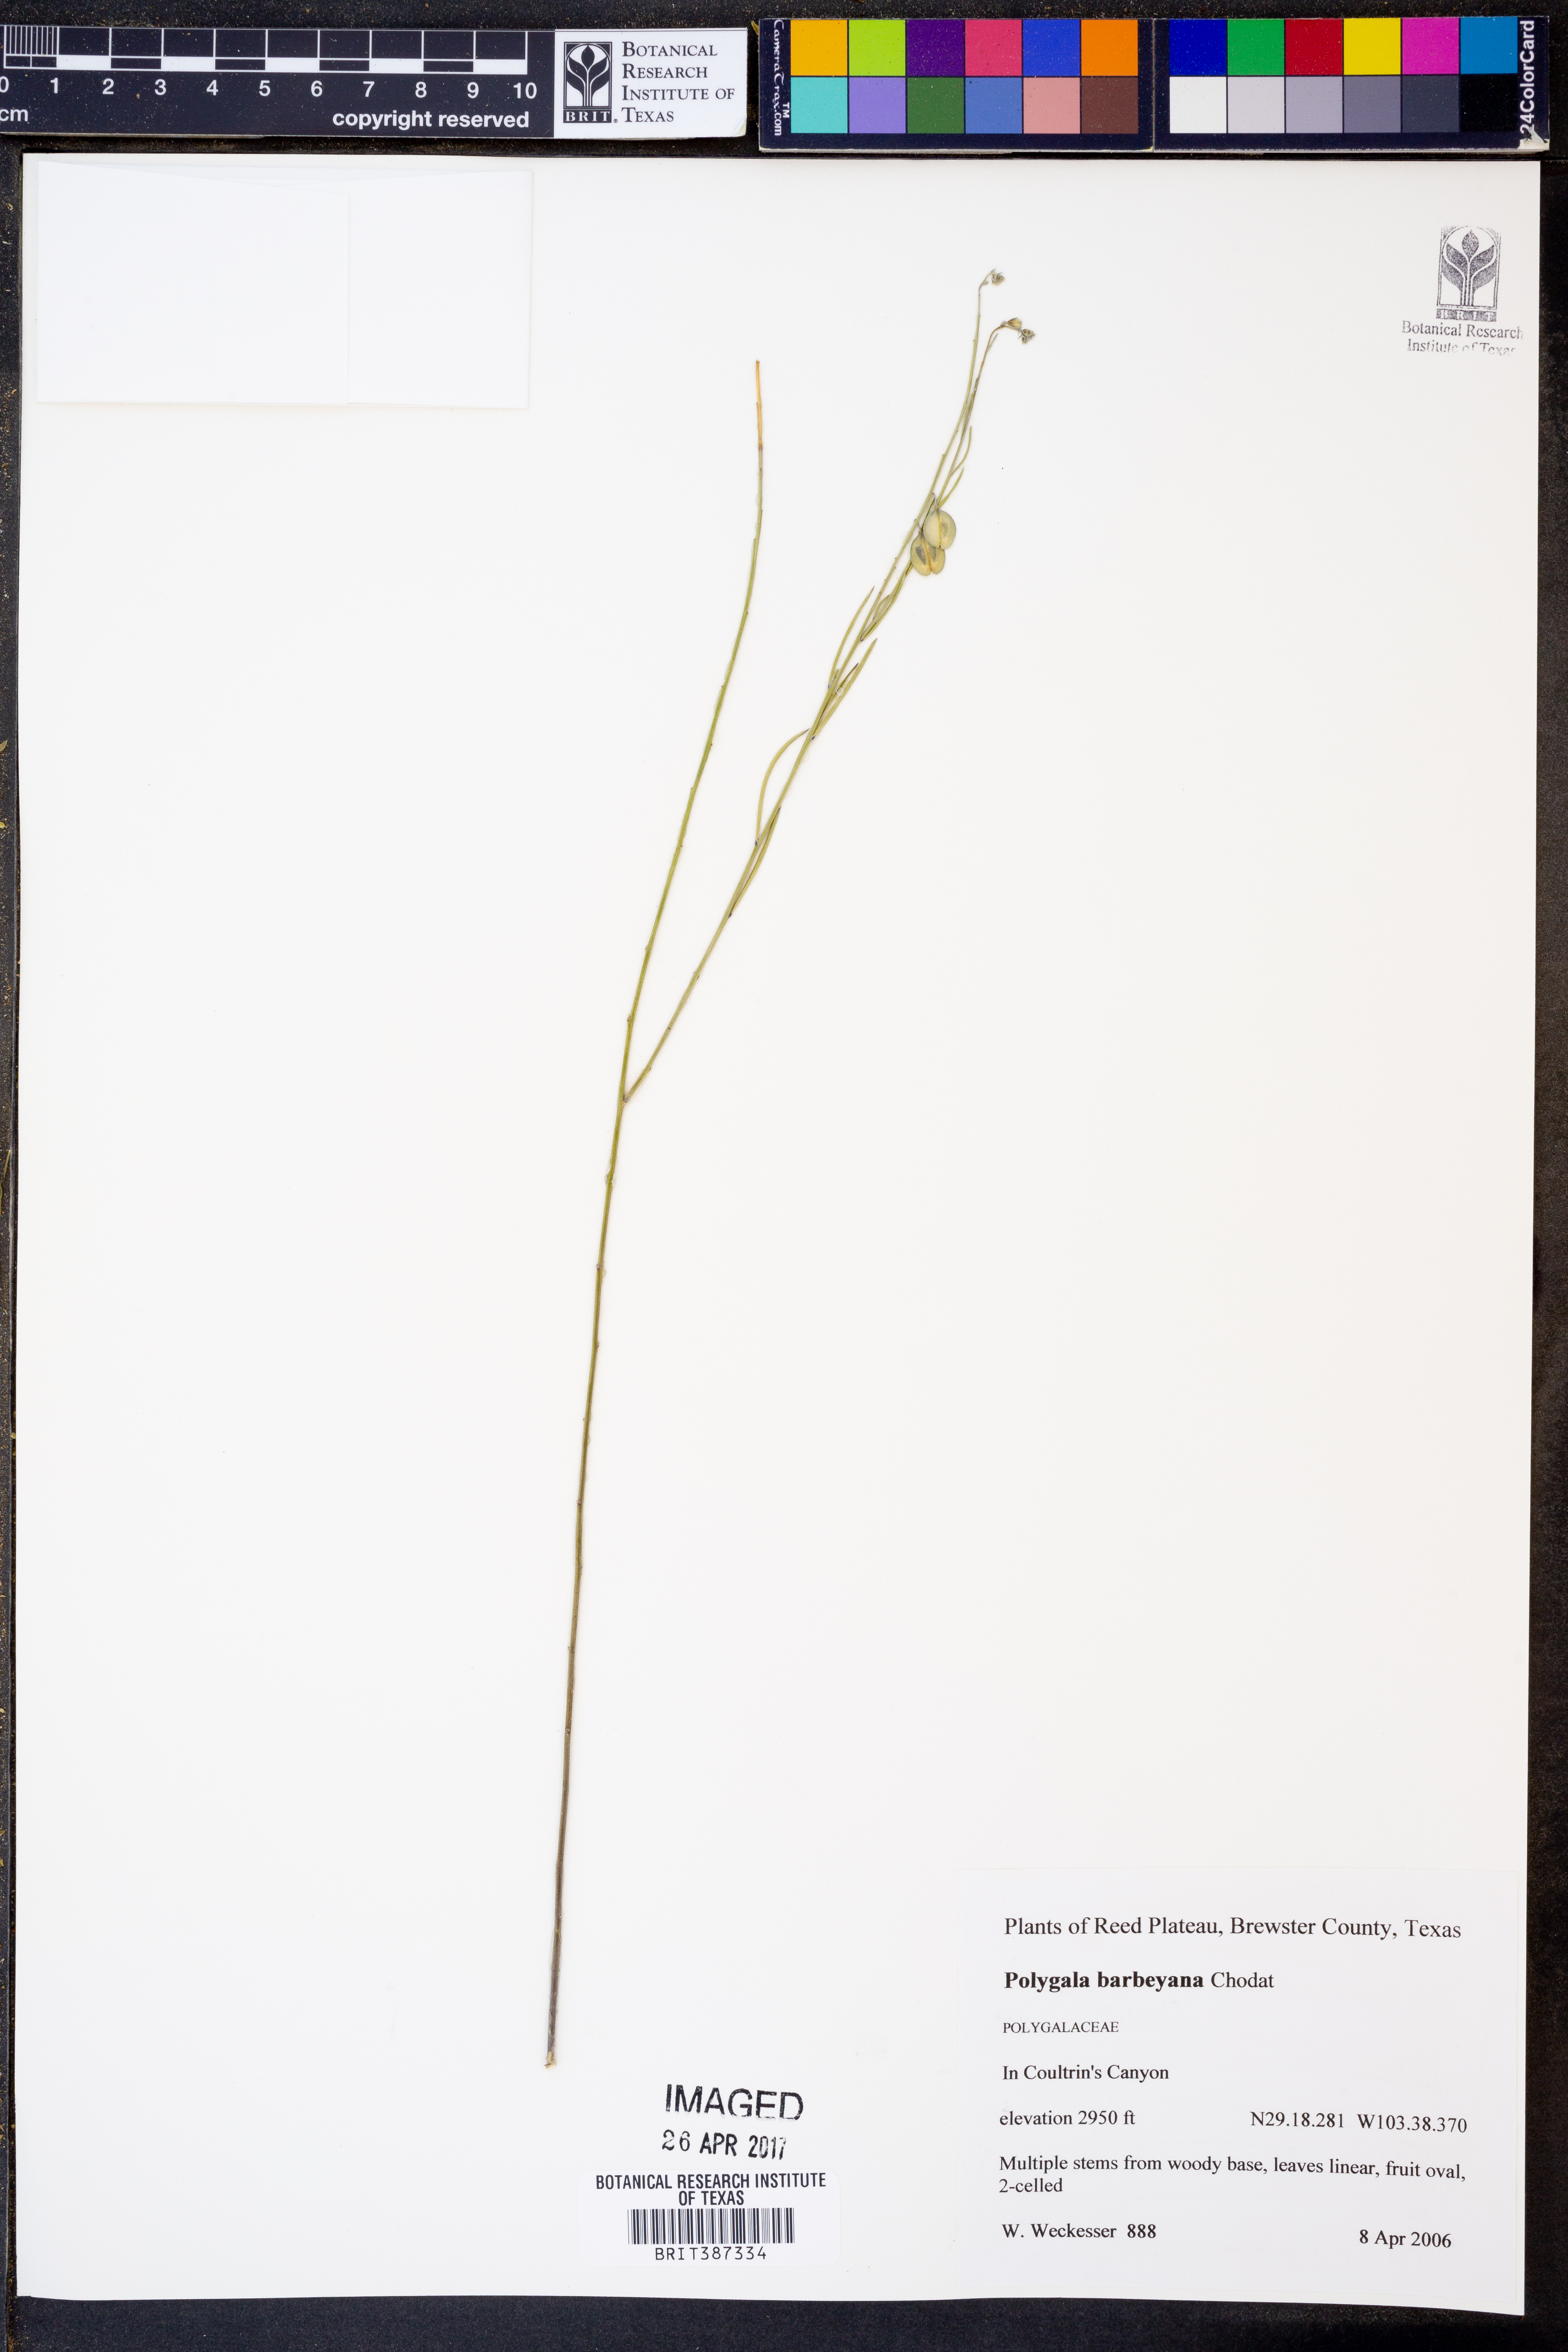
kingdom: Plantae
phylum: Tracheophyta
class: Magnoliopsida
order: Fabales
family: Polygalaceae
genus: Hebecarpa
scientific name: Hebecarpa barbeyana
